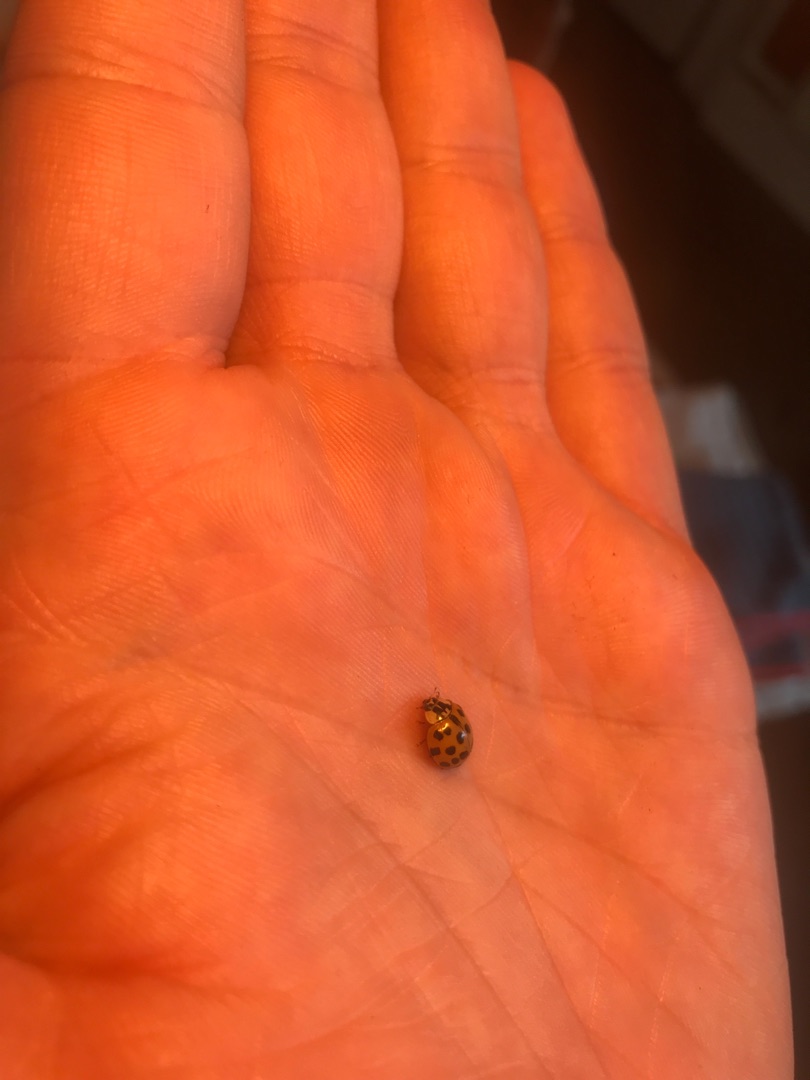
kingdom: Animalia
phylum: Arthropoda
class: Insecta
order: Coleoptera
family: Coccinellidae
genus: Harmonia
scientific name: Harmonia axyridis
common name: Harlekinmariehøne
